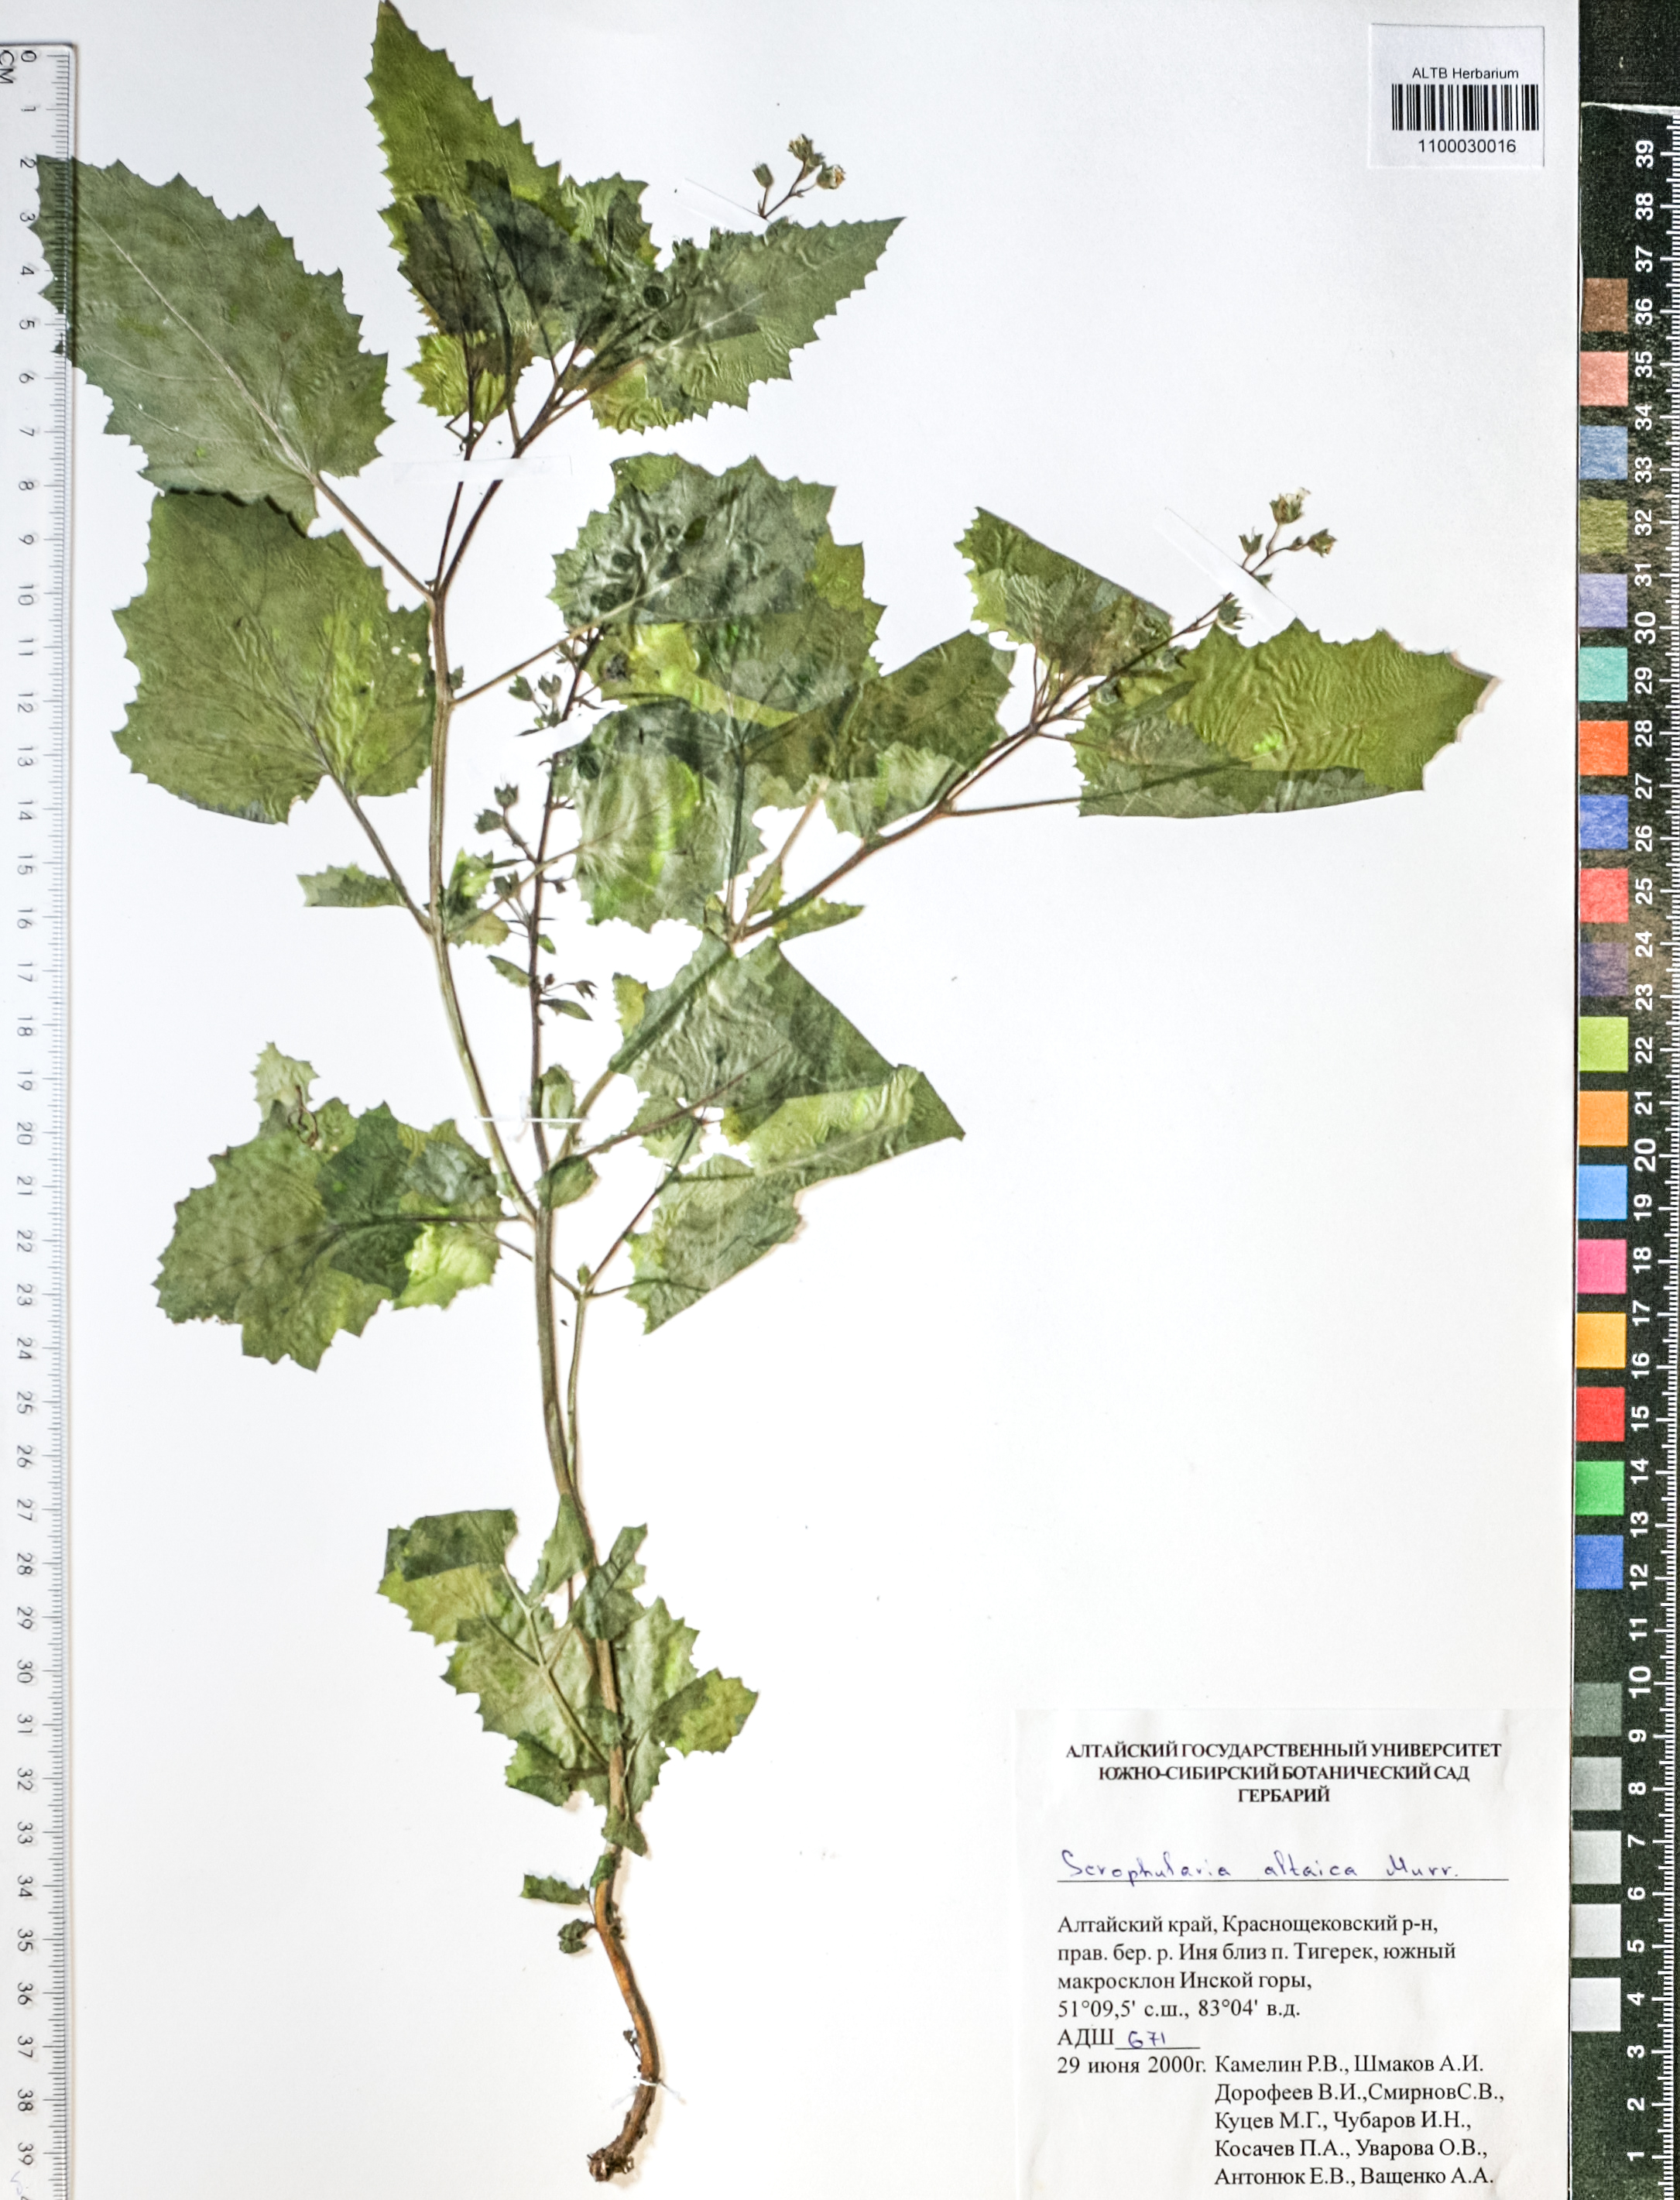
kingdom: Plantae
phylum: Tracheophyta
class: Magnoliopsida
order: Lamiales
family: Scrophulariaceae
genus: Scrophularia
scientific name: Scrophularia altaica
